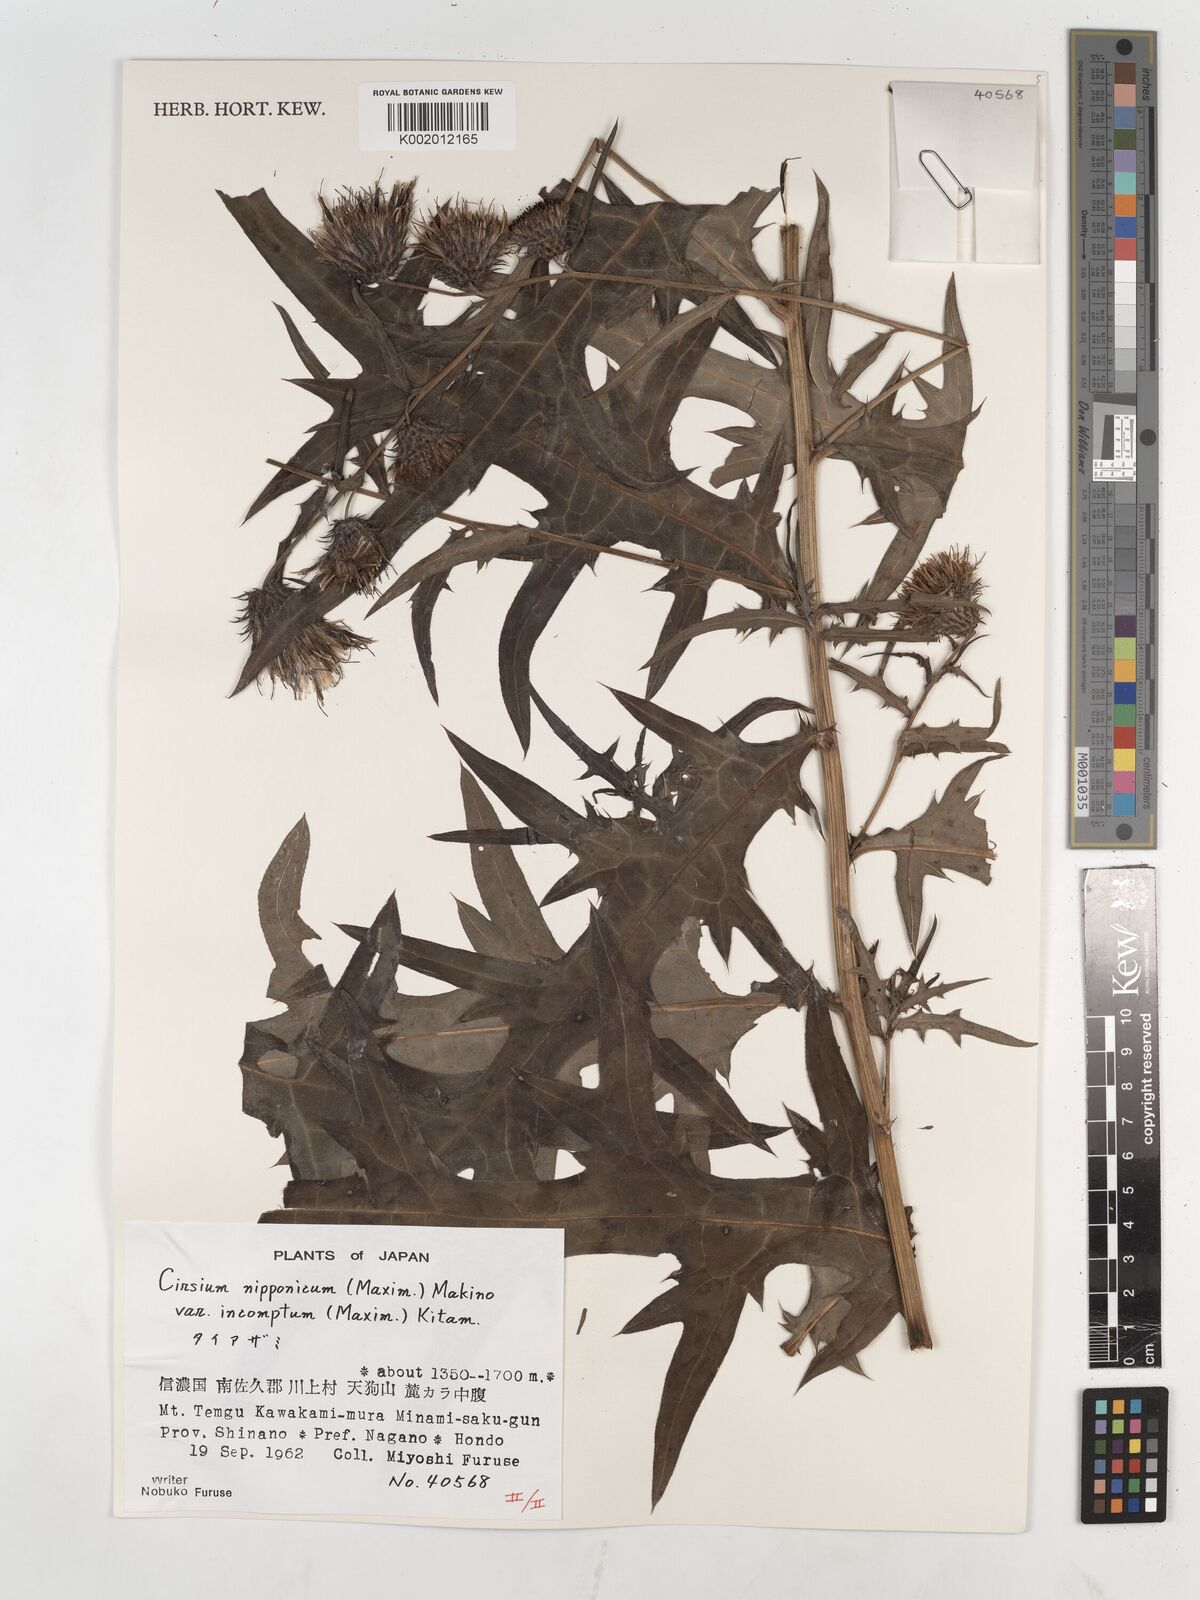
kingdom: Plantae
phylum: Tracheophyta
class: Magnoliopsida
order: Asterales
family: Asteraceae
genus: Cirsium
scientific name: Cirsium nipponicum
